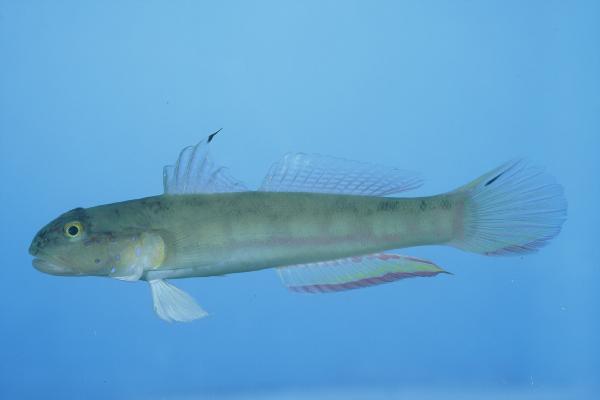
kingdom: Animalia
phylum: Chordata
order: Perciformes
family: Gobiidae
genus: Valenciennea
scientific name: Valenciennea sexguttata
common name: Sixspot goby
